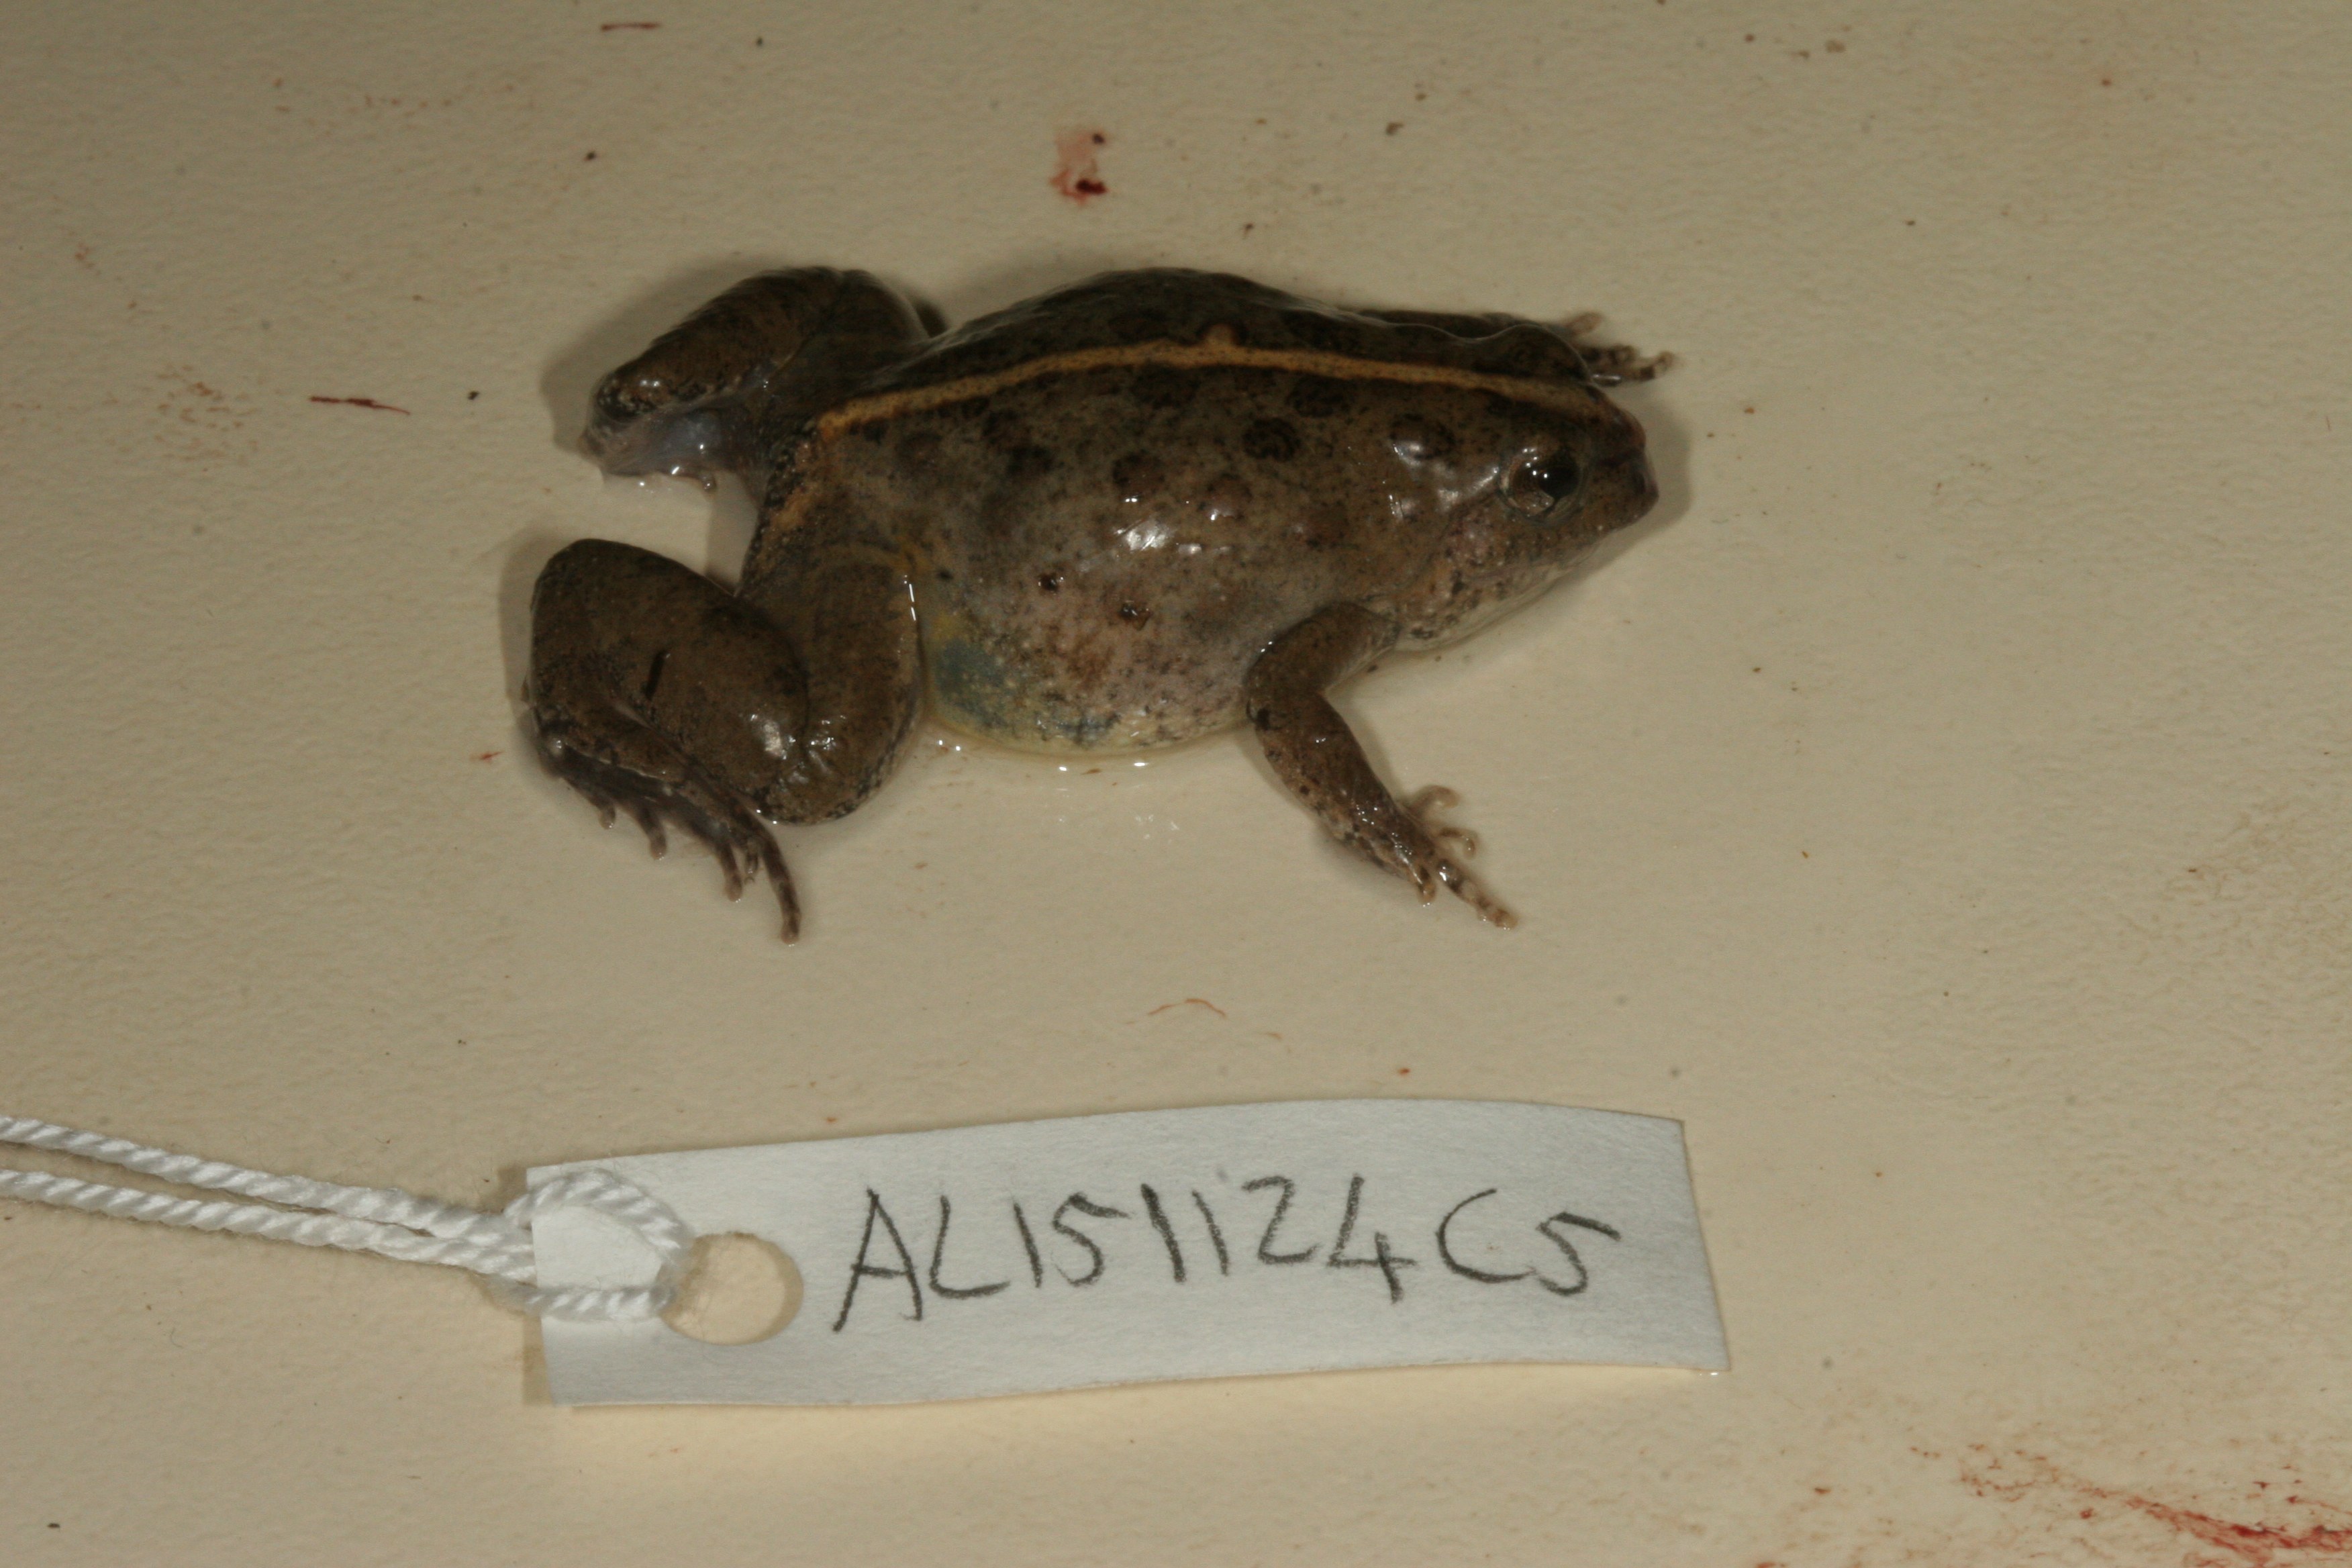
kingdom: Animalia
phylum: Chordata
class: Amphibia
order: Anura
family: Phrynobatrachidae
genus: Phrynobatrachus
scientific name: Phrynobatrachus natalensis
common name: Snoring puddle frog
